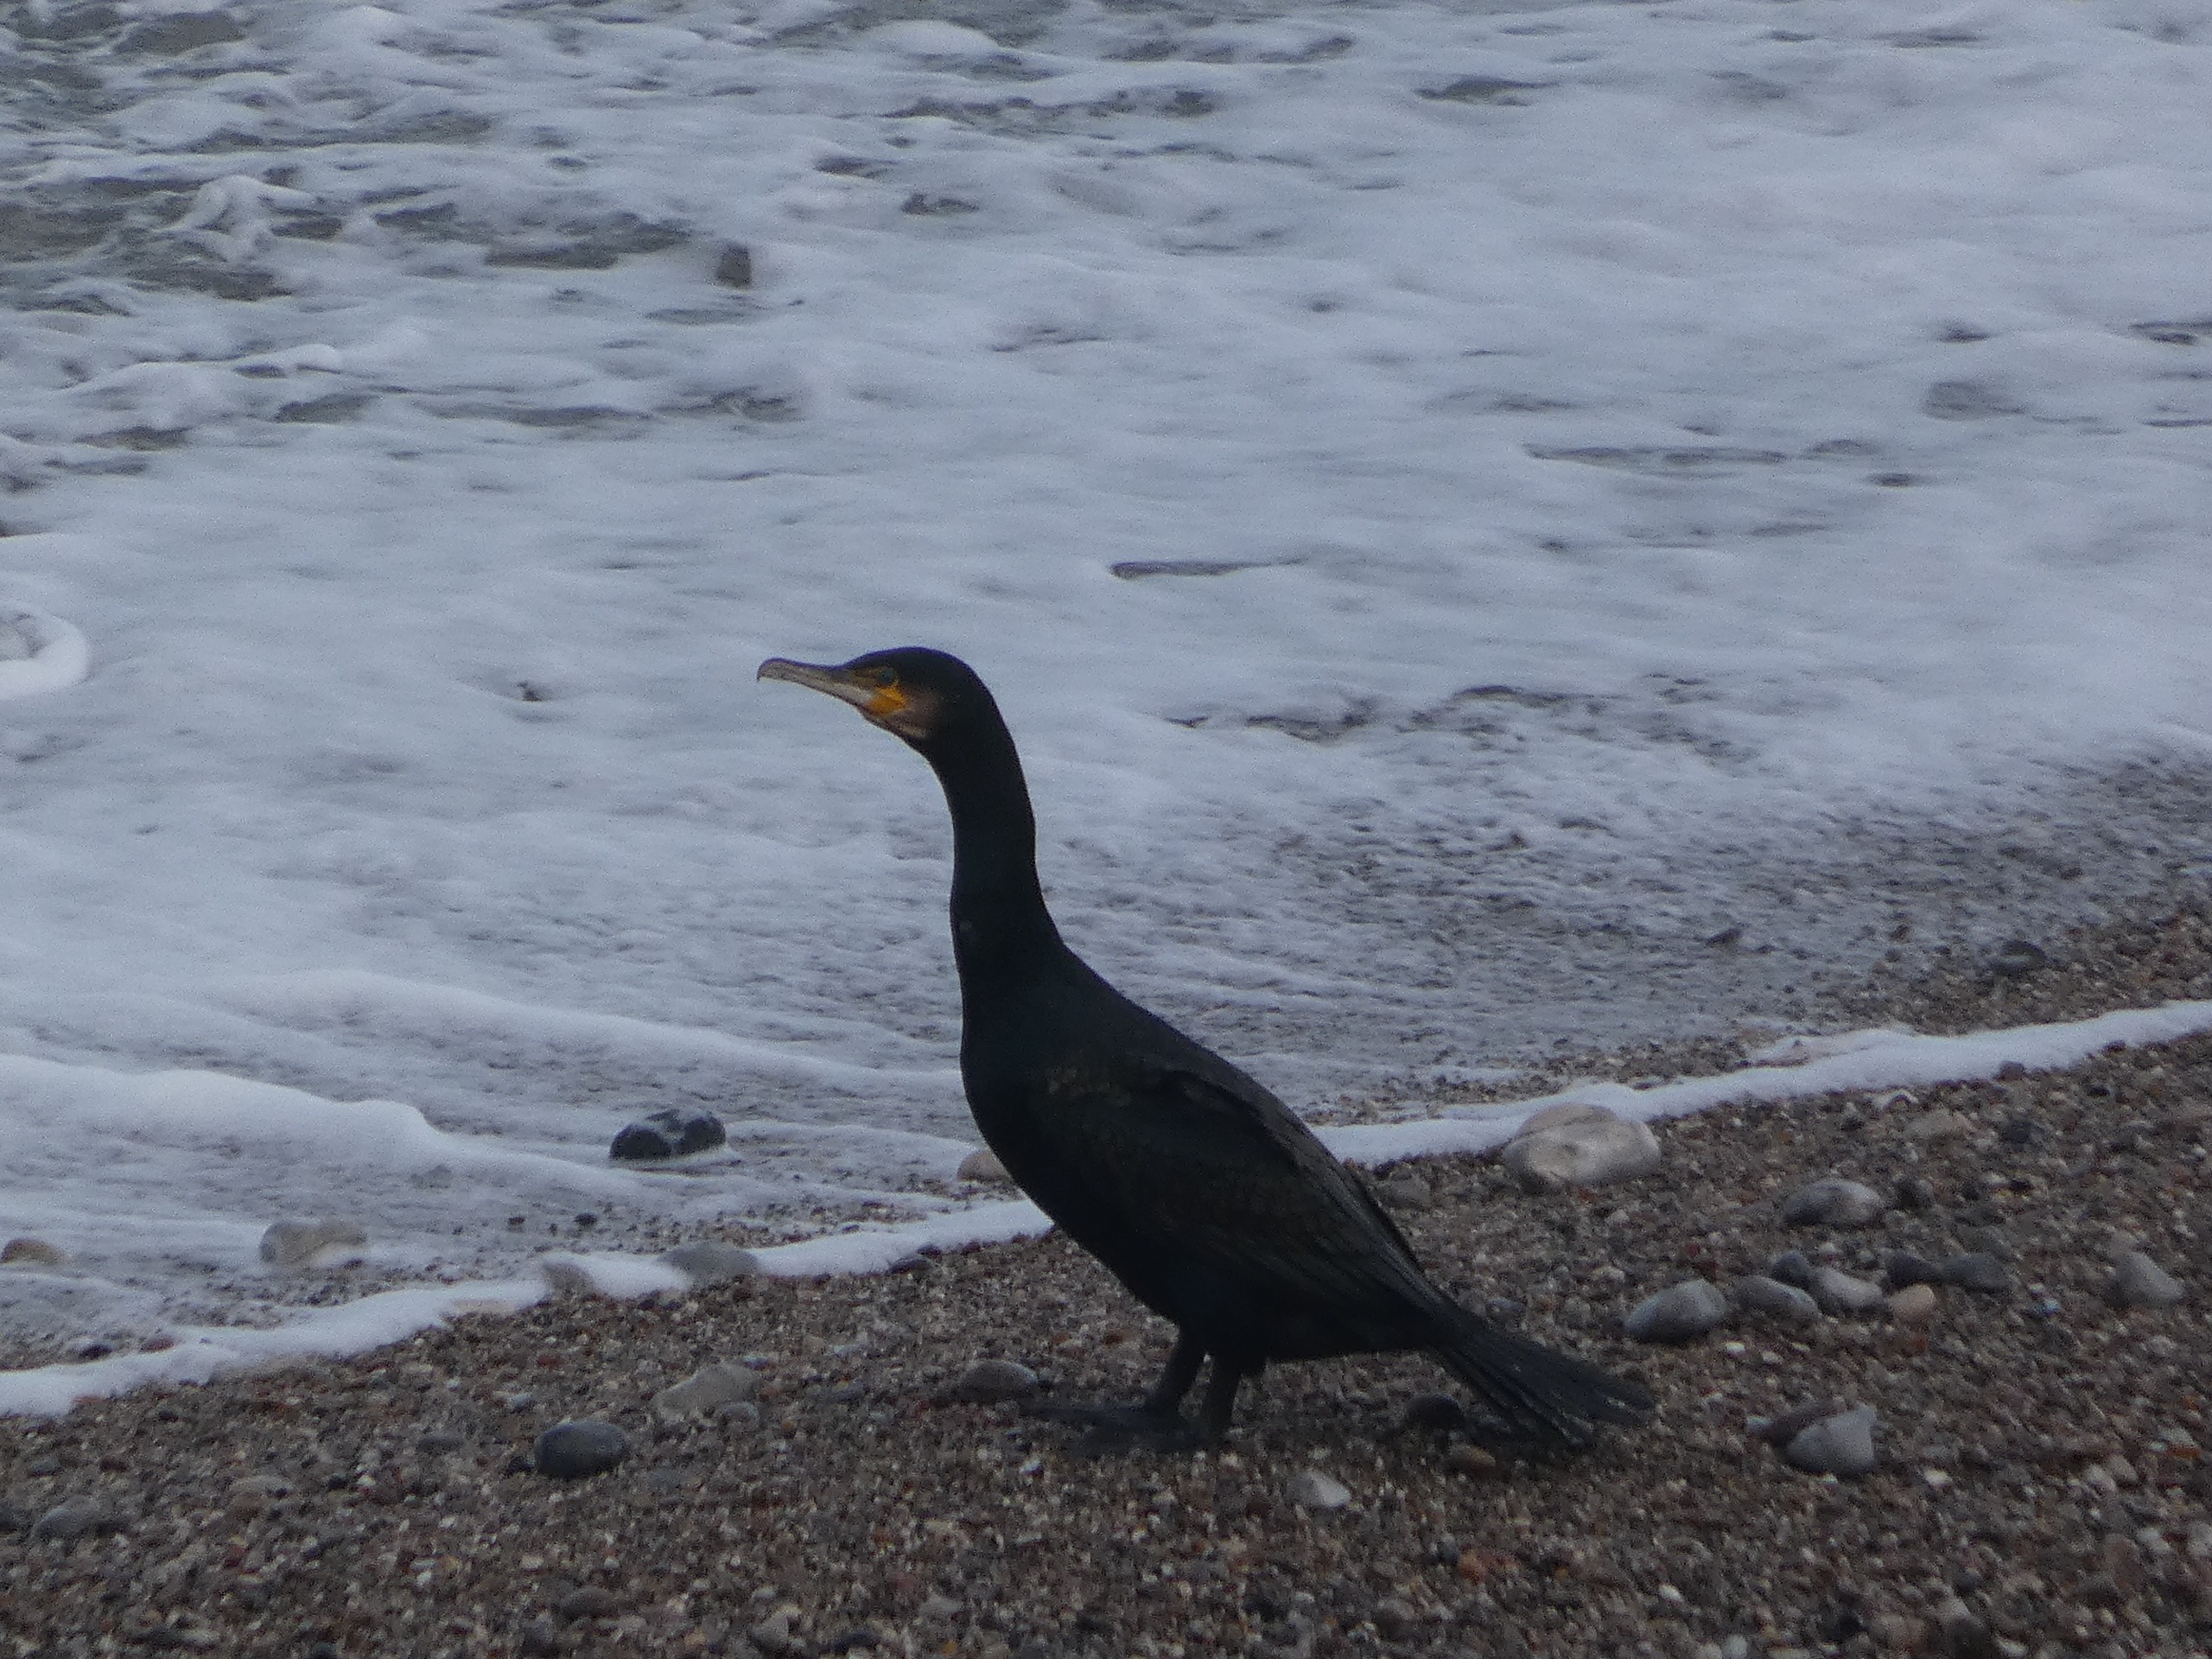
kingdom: Animalia
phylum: Chordata
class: Aves
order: Suliformes
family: Phalacrocoracidae
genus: Phalacrocorax
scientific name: Phalacrocorax carbo
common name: Skarv
